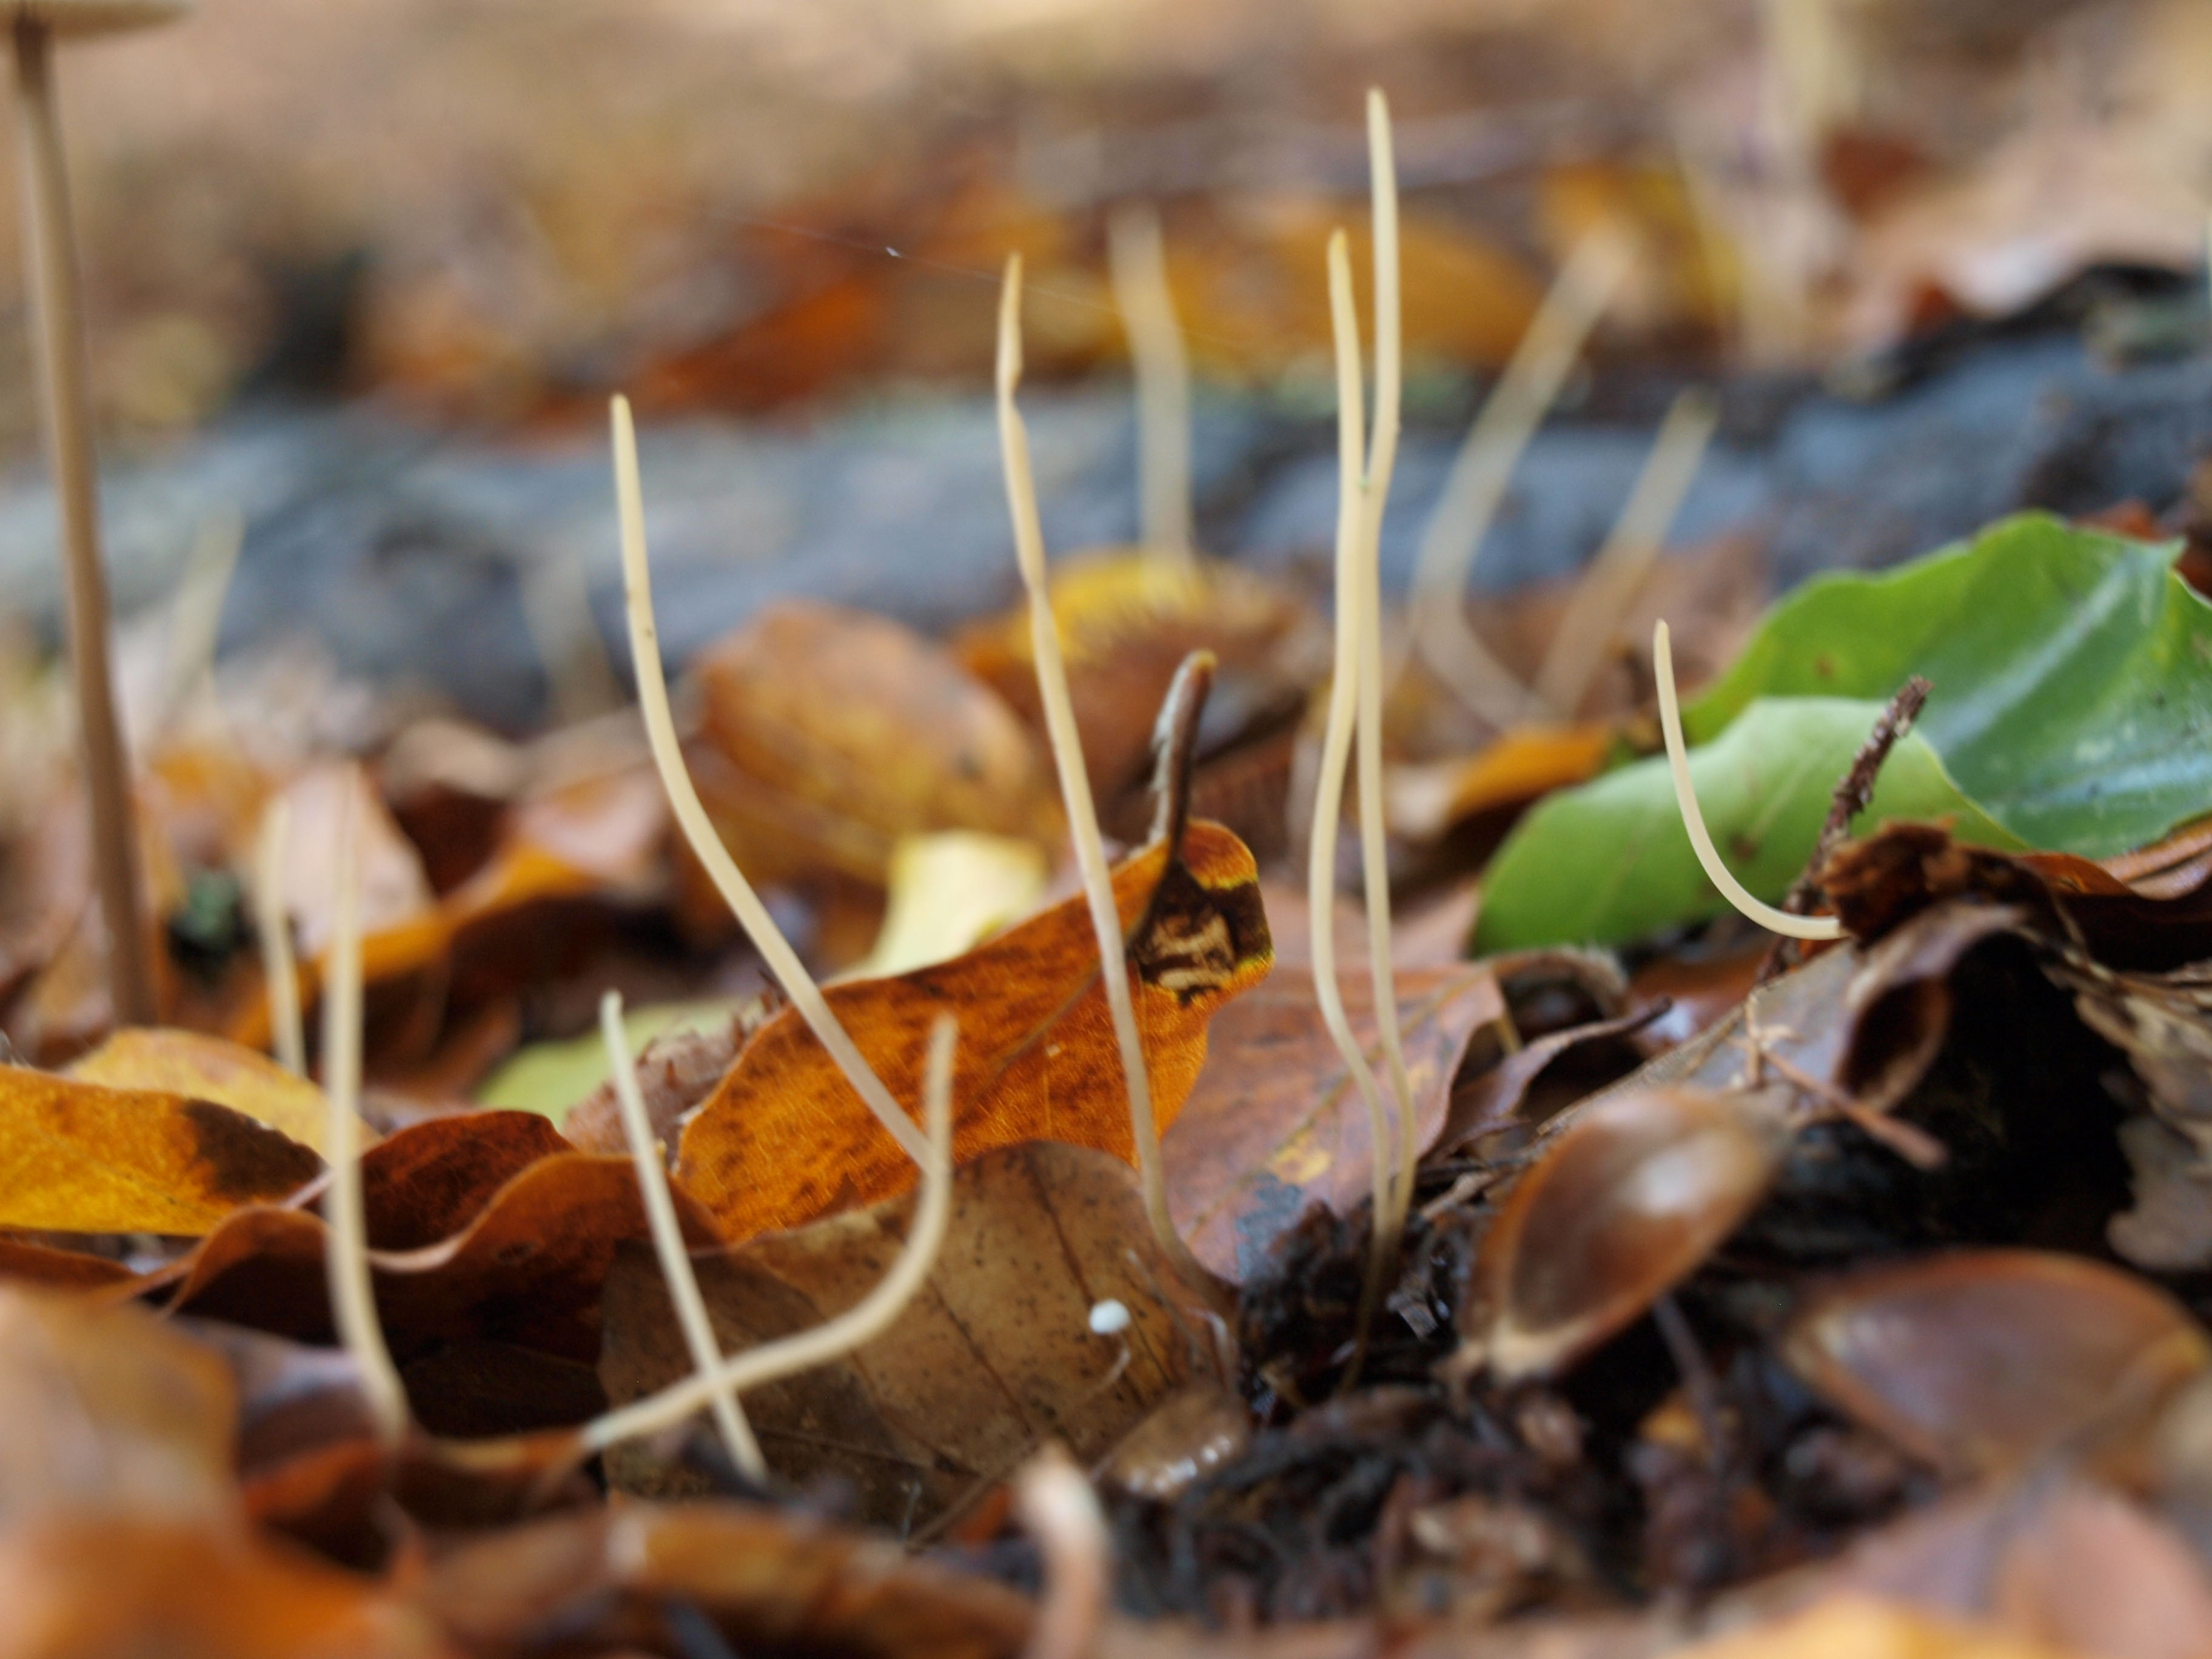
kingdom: Fungi
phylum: Basidiomycota
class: Agaricomycetes
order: Agaricales
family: Typhulaceae
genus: Typhula
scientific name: Typhula juncea
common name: trådagtig rørkølle
